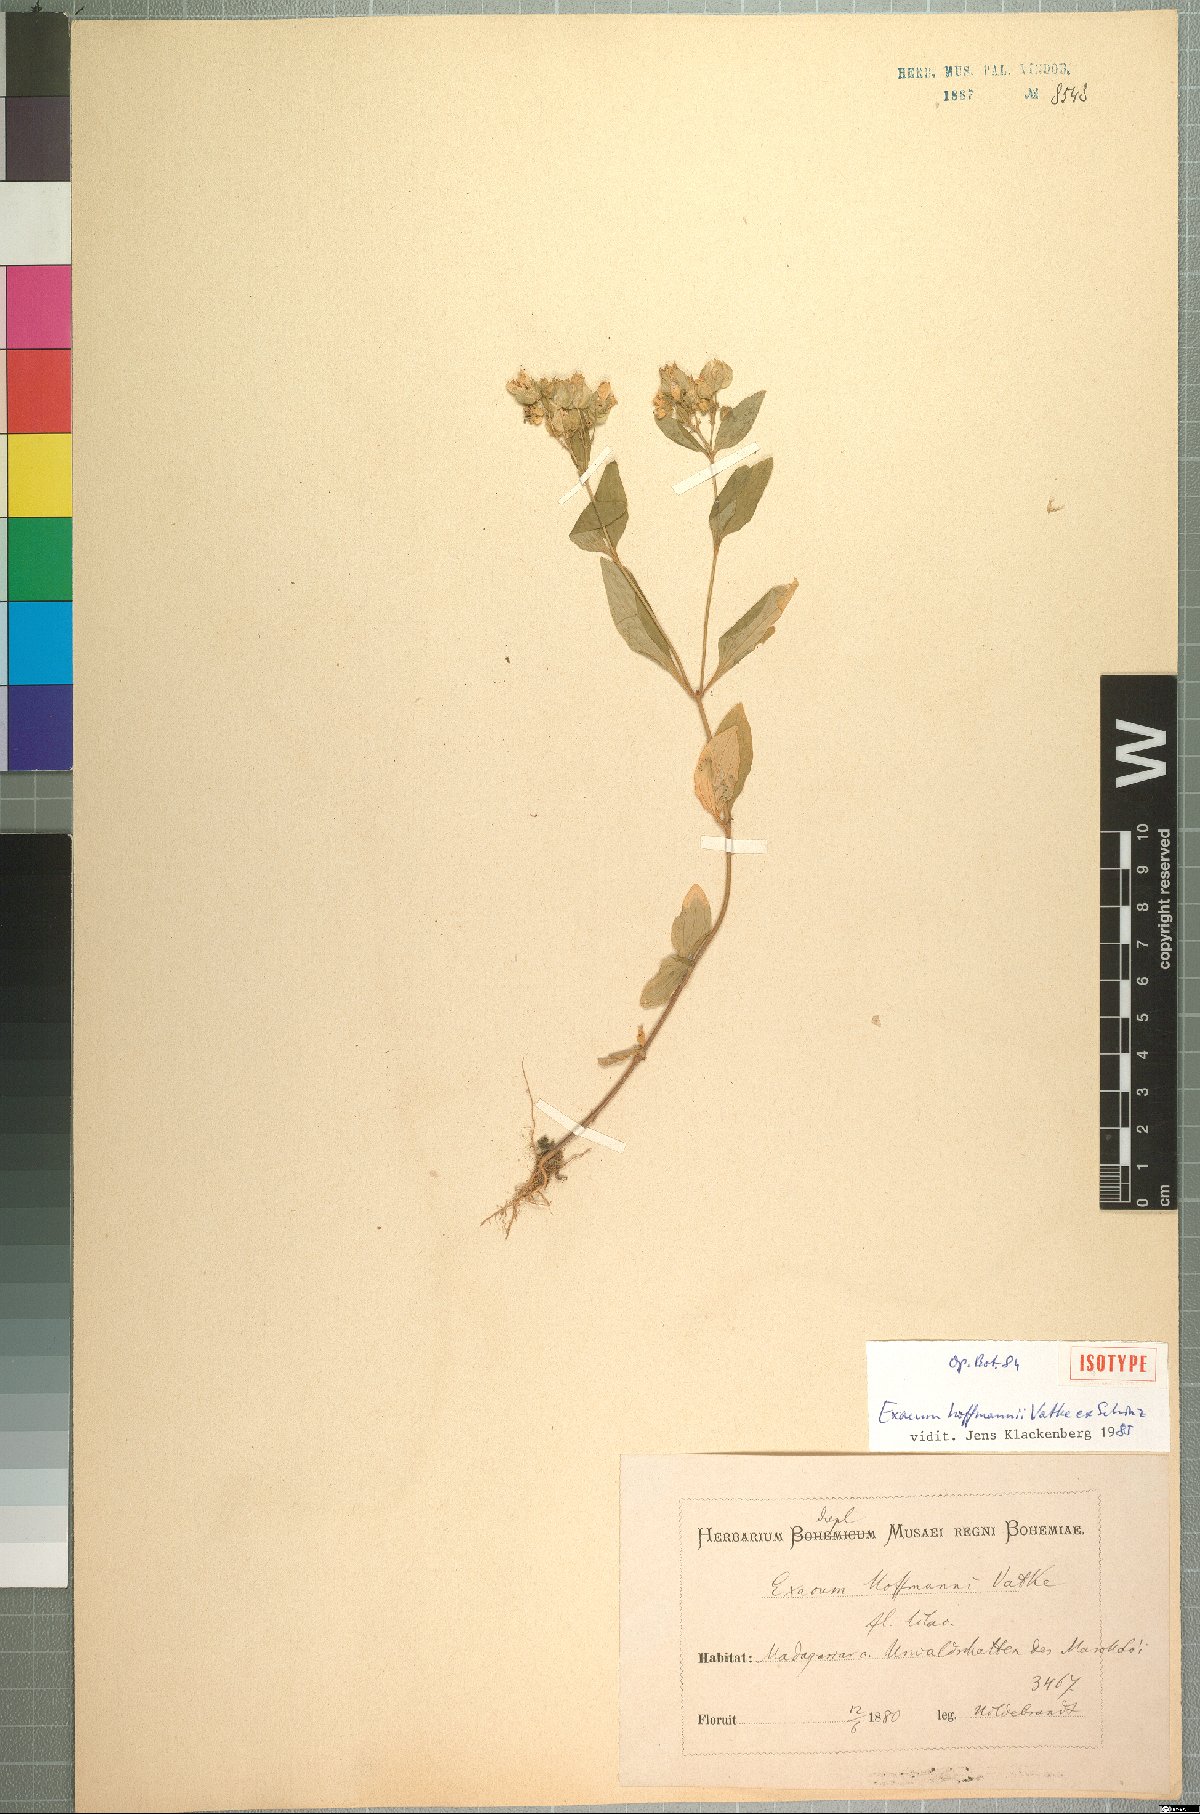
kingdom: Plantae
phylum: Tracheophyta
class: Magnoliopsida
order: Gentianales
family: Gentianaceae
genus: Exacum
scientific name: Exacum hoffmannii
